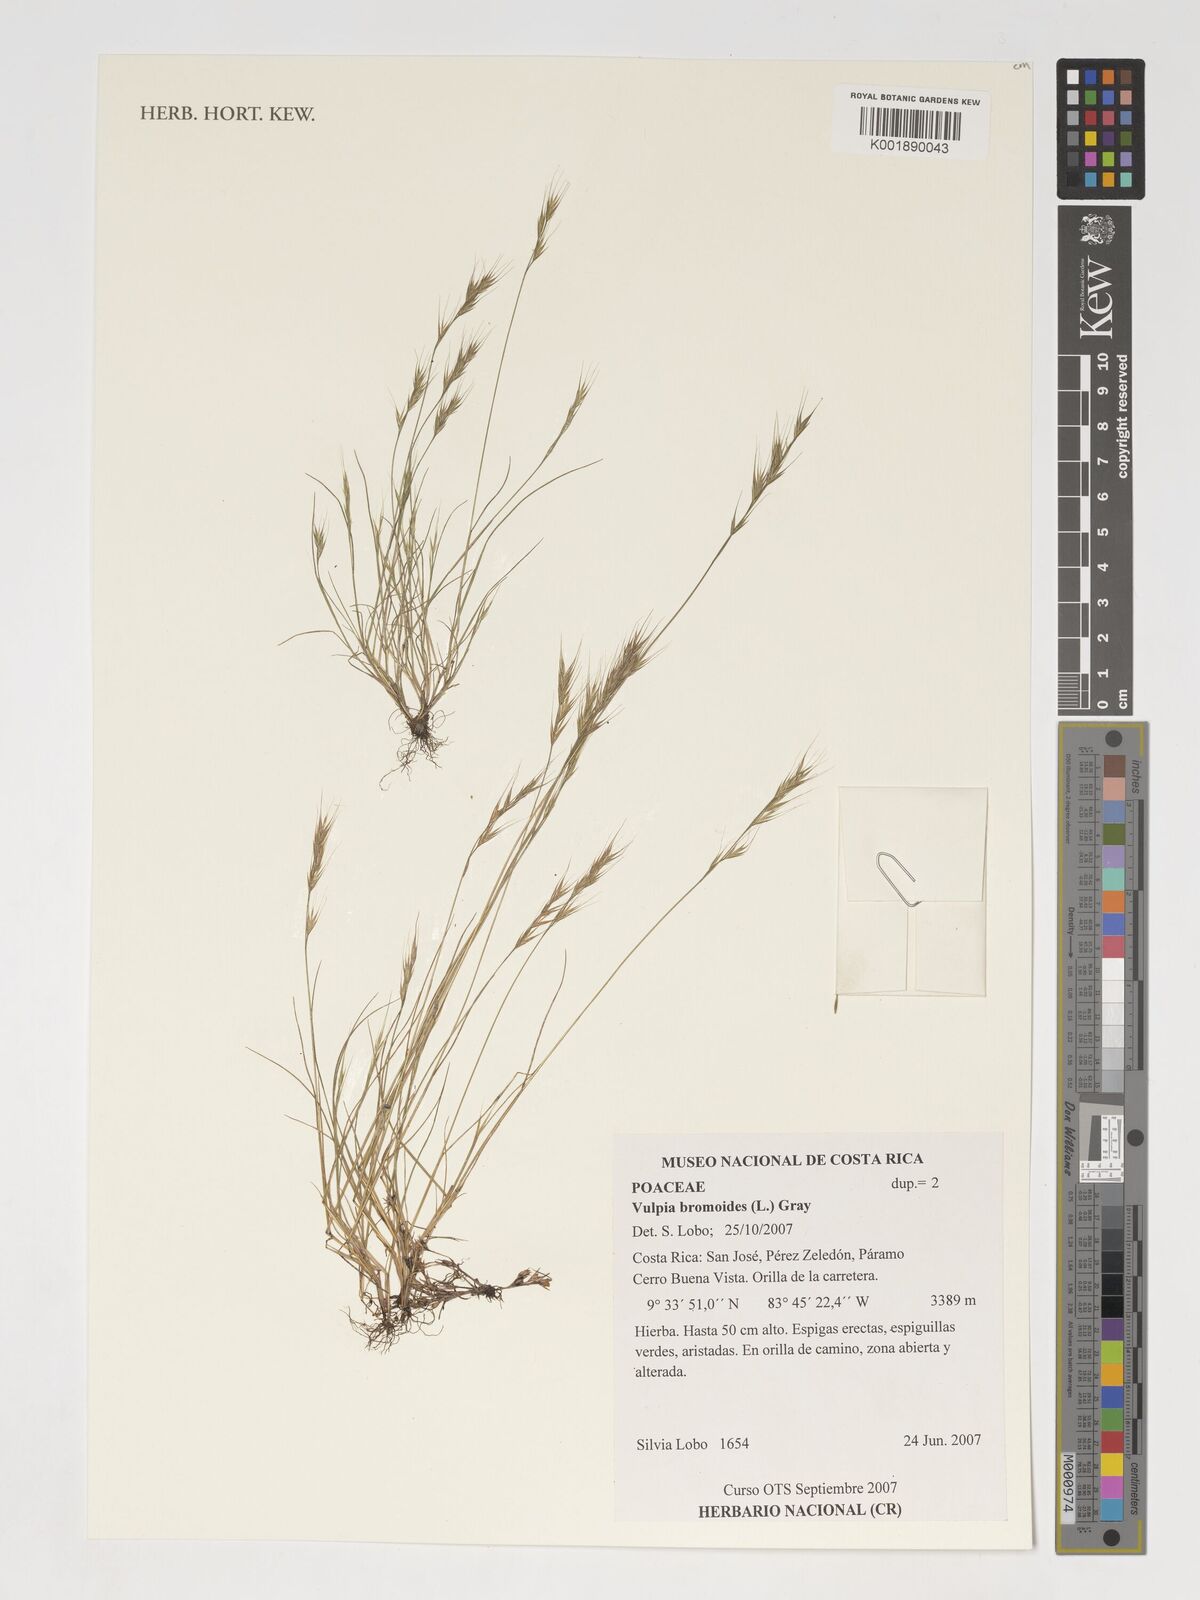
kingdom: Plantae
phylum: Tracheophyta
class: Liliopsida
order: Poales
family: Poaceae
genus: Festuca
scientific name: Festuca bromoides
